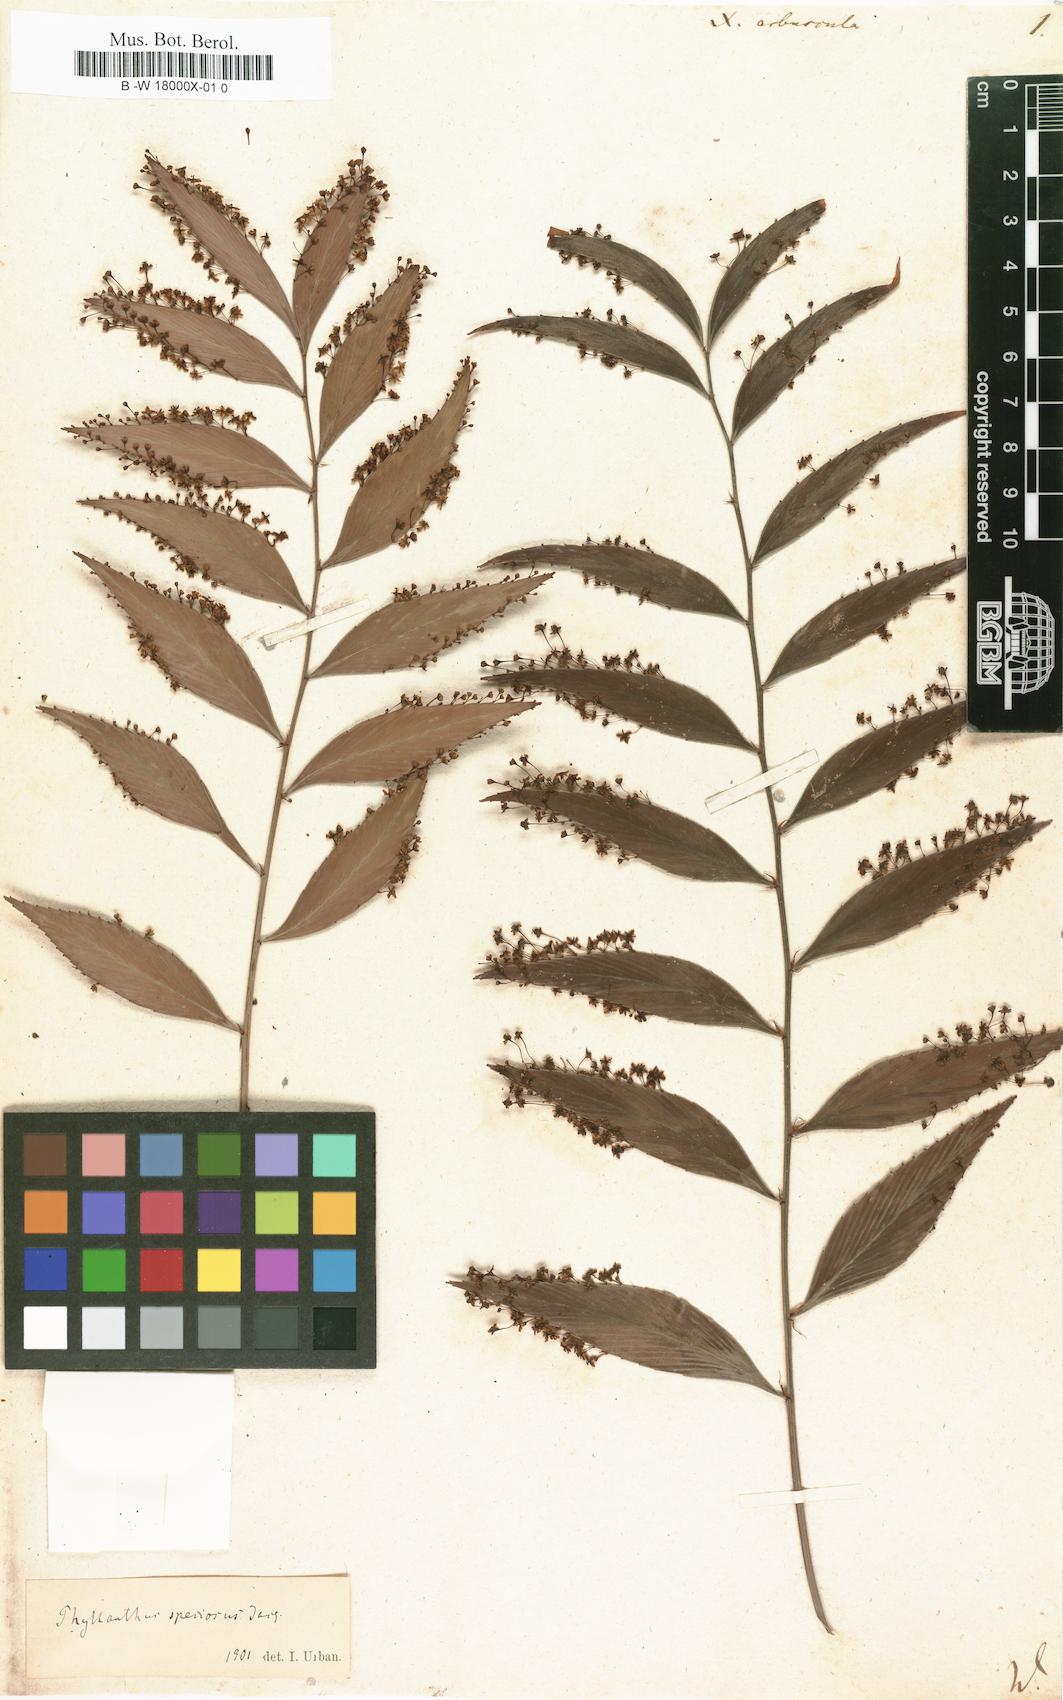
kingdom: Plantae
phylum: Tracheophyta
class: Magnoliopsida
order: Malpighiales
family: Phyllanthaceae
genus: Phyllanthus
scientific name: Phyllanthus arbuscula
